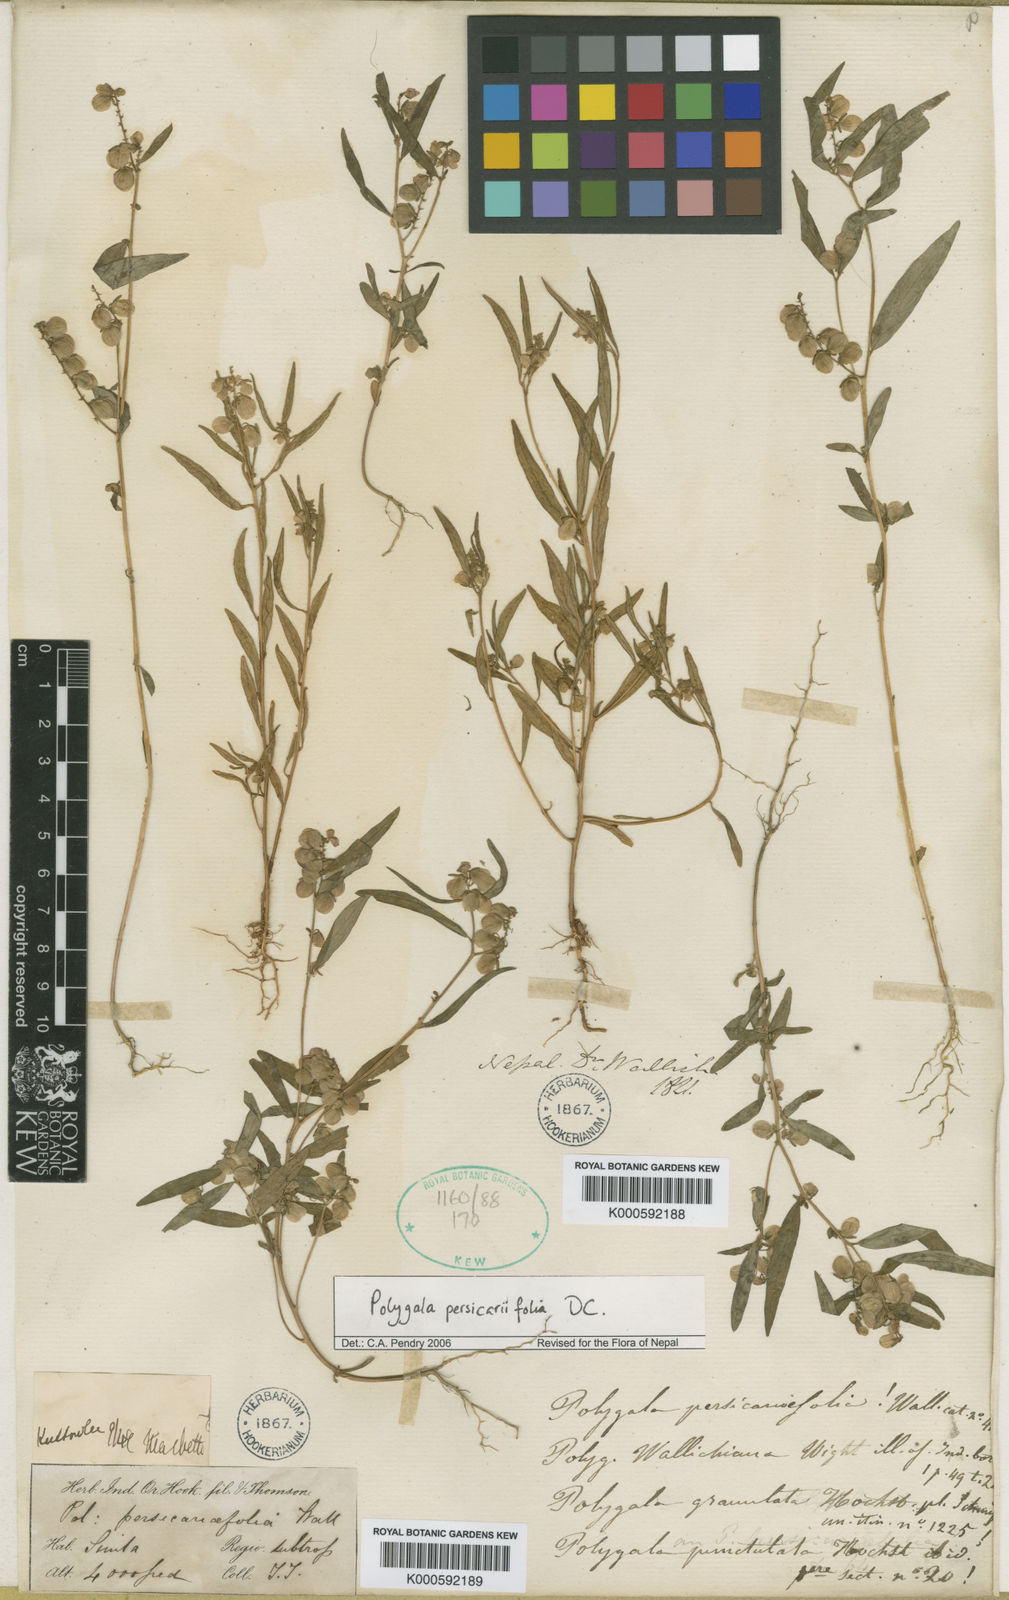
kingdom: Plantae
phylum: Tracheophyta
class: Magnoliopsida
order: Fabales
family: Polygalaceae
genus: Polygala
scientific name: Polygala persicariifolia
